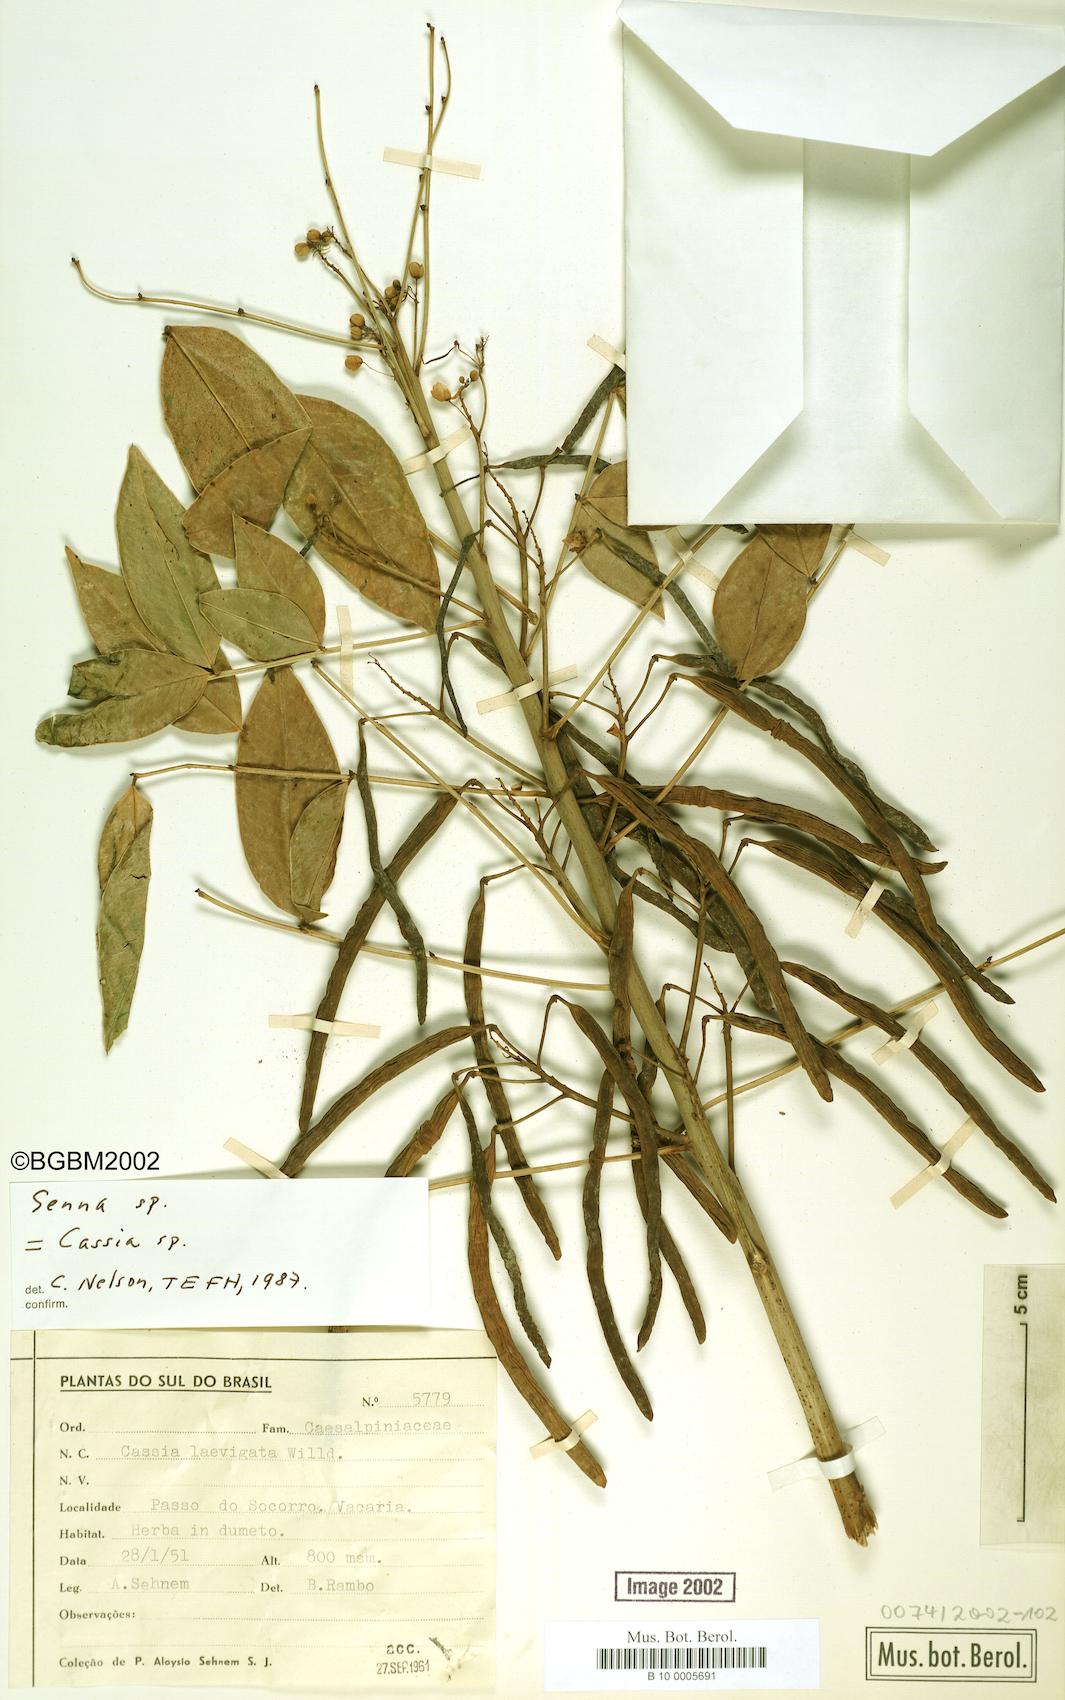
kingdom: Plantae
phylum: Tracheophyta
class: Magnoliopsida
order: Fabales
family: Fabaceae
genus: Cassia
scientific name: Cassia
